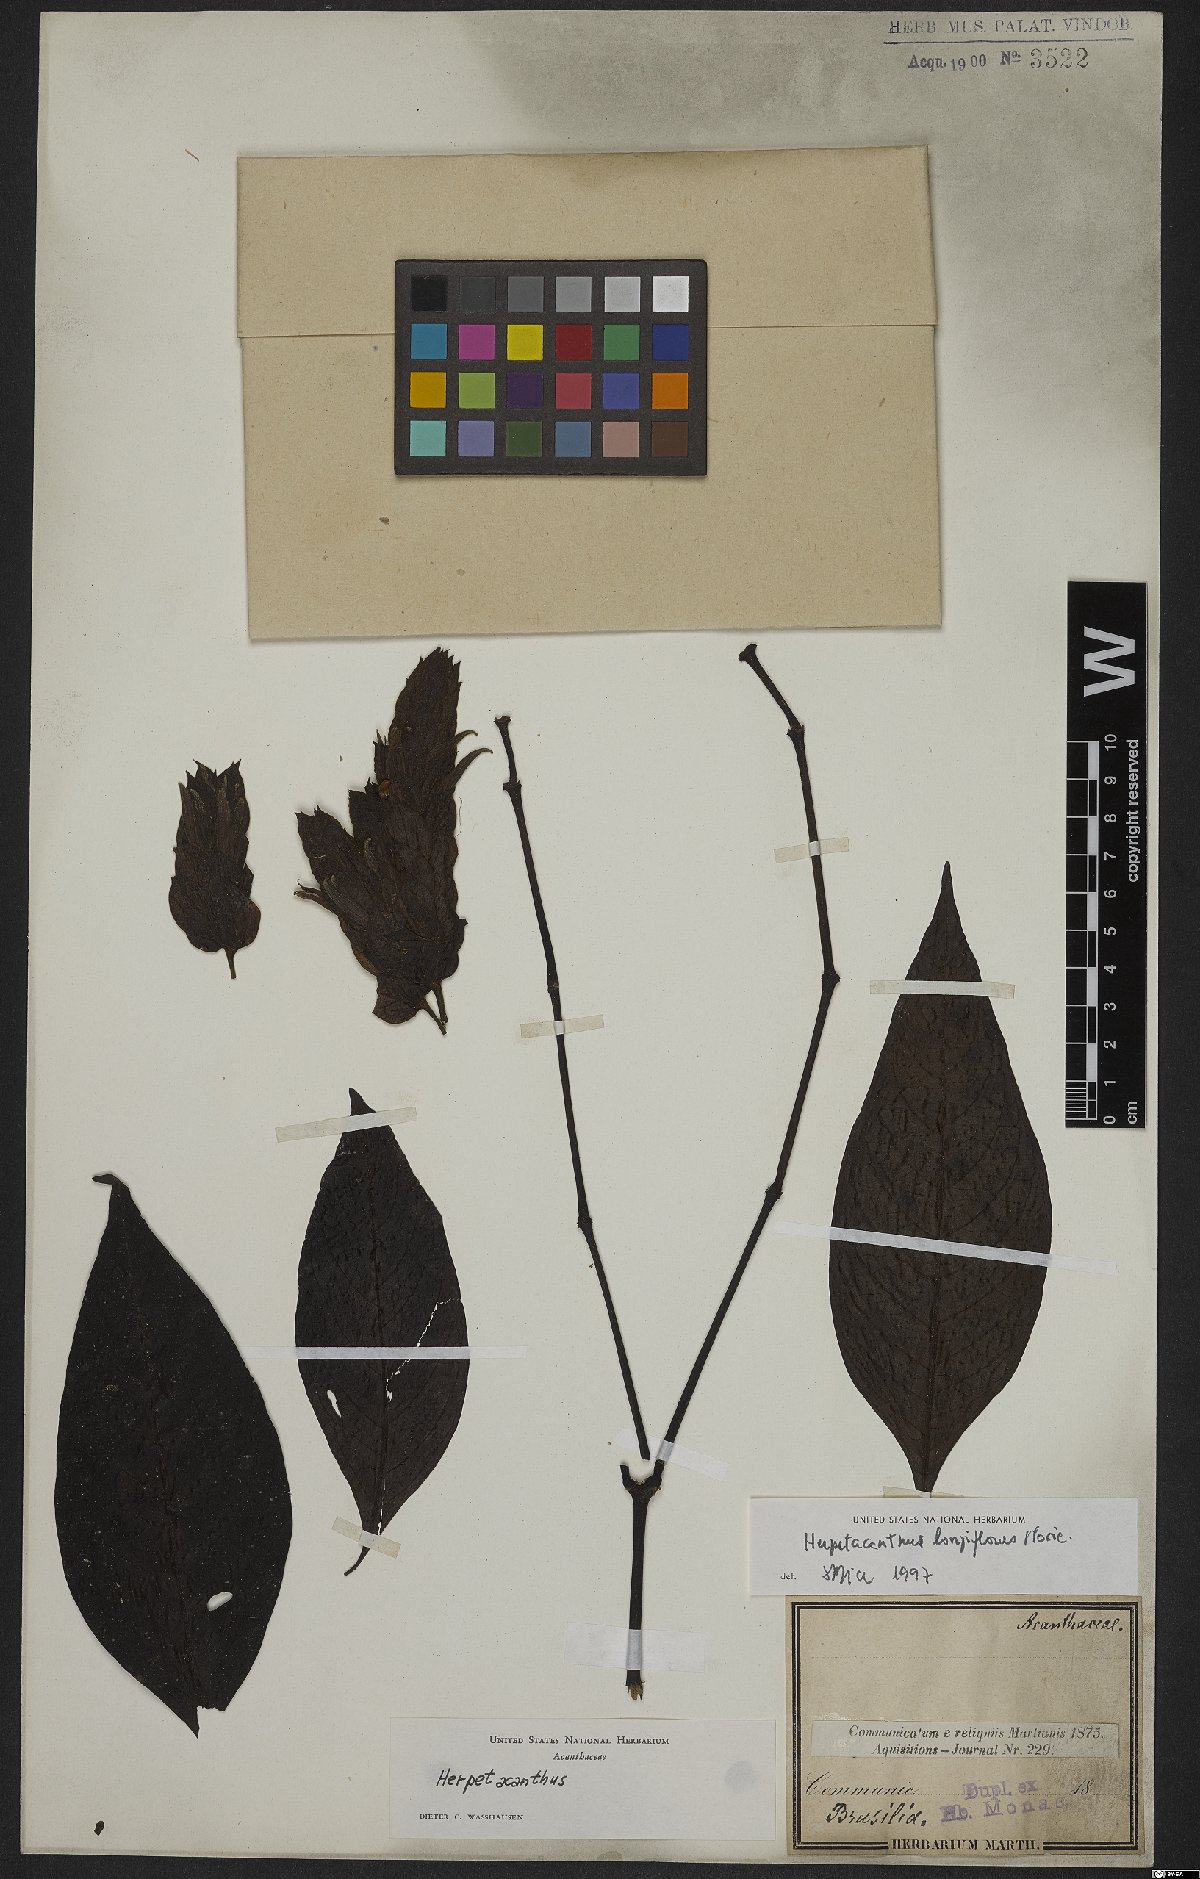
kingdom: Plantae
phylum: Tracheophyta
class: Magnoliopsida
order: Lamiales
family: Acanthaceae
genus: Herpetacanthus
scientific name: Herpetacanthus longiflorus
